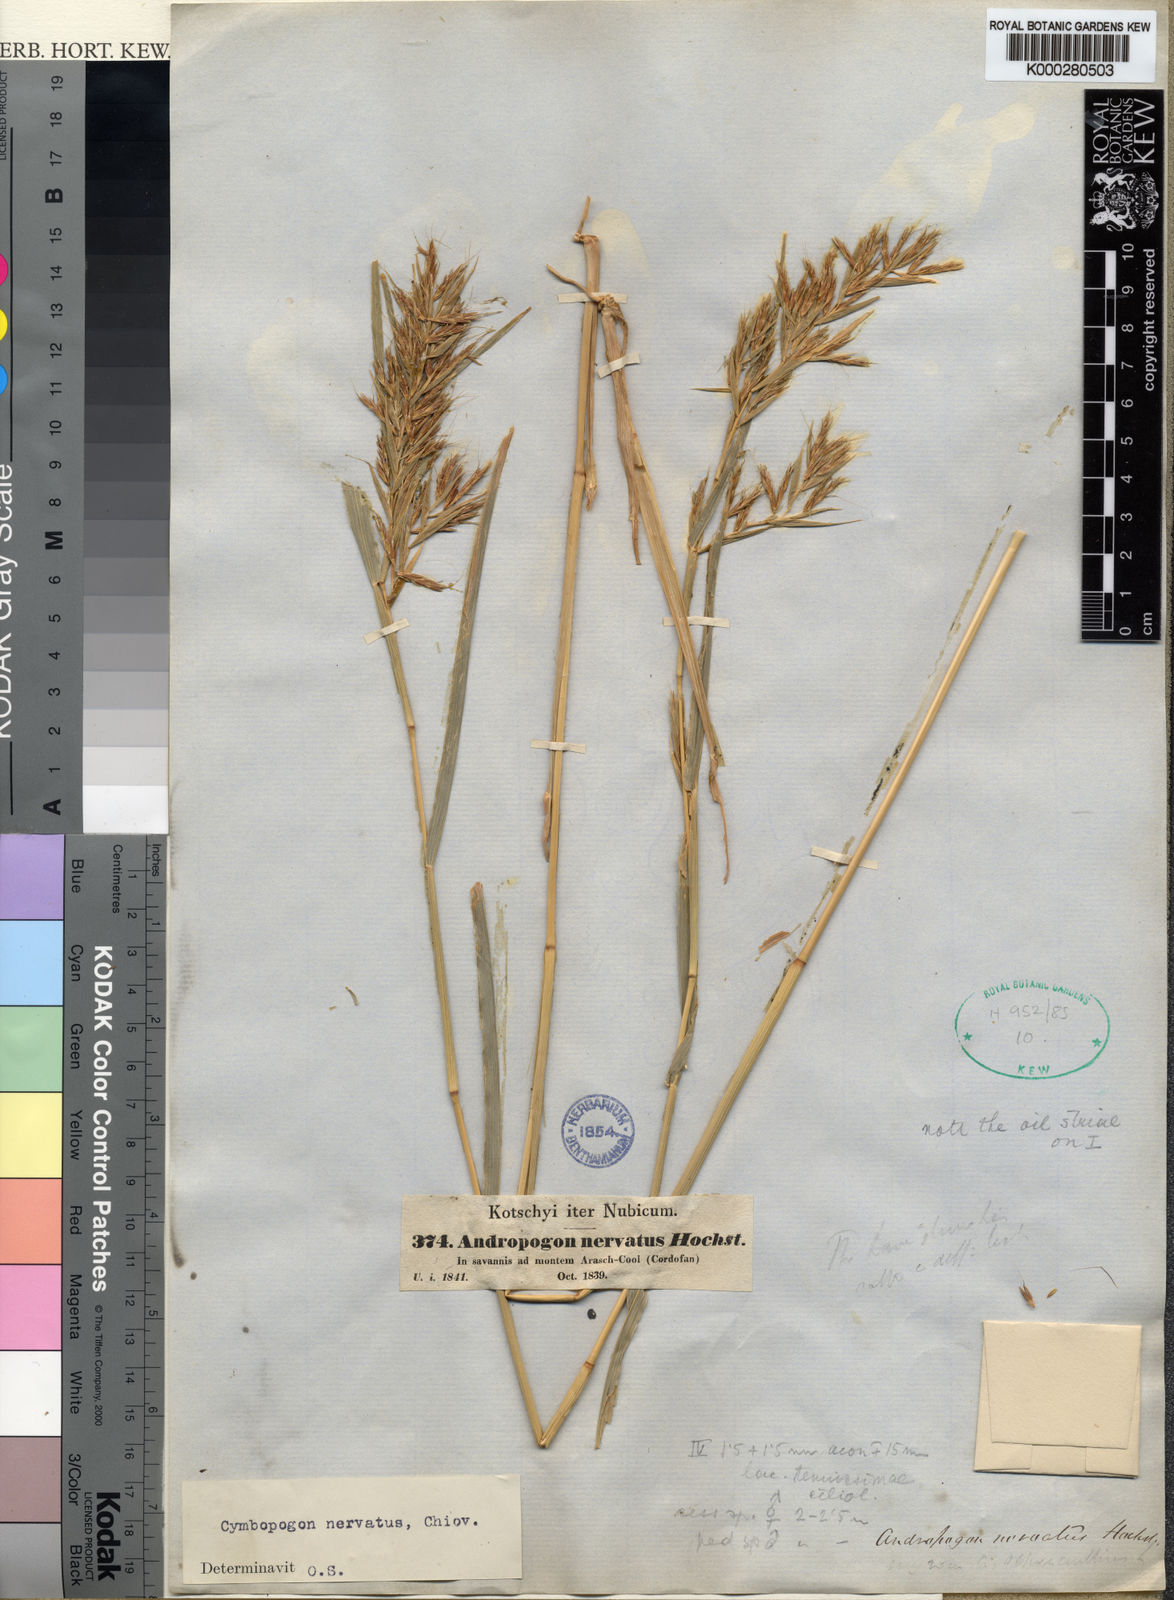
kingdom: Plantae
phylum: Tracheophyta
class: Liliopsida
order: Poales
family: Poaceae
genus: Cymbopogon
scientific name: Cymbopogon nervatus
